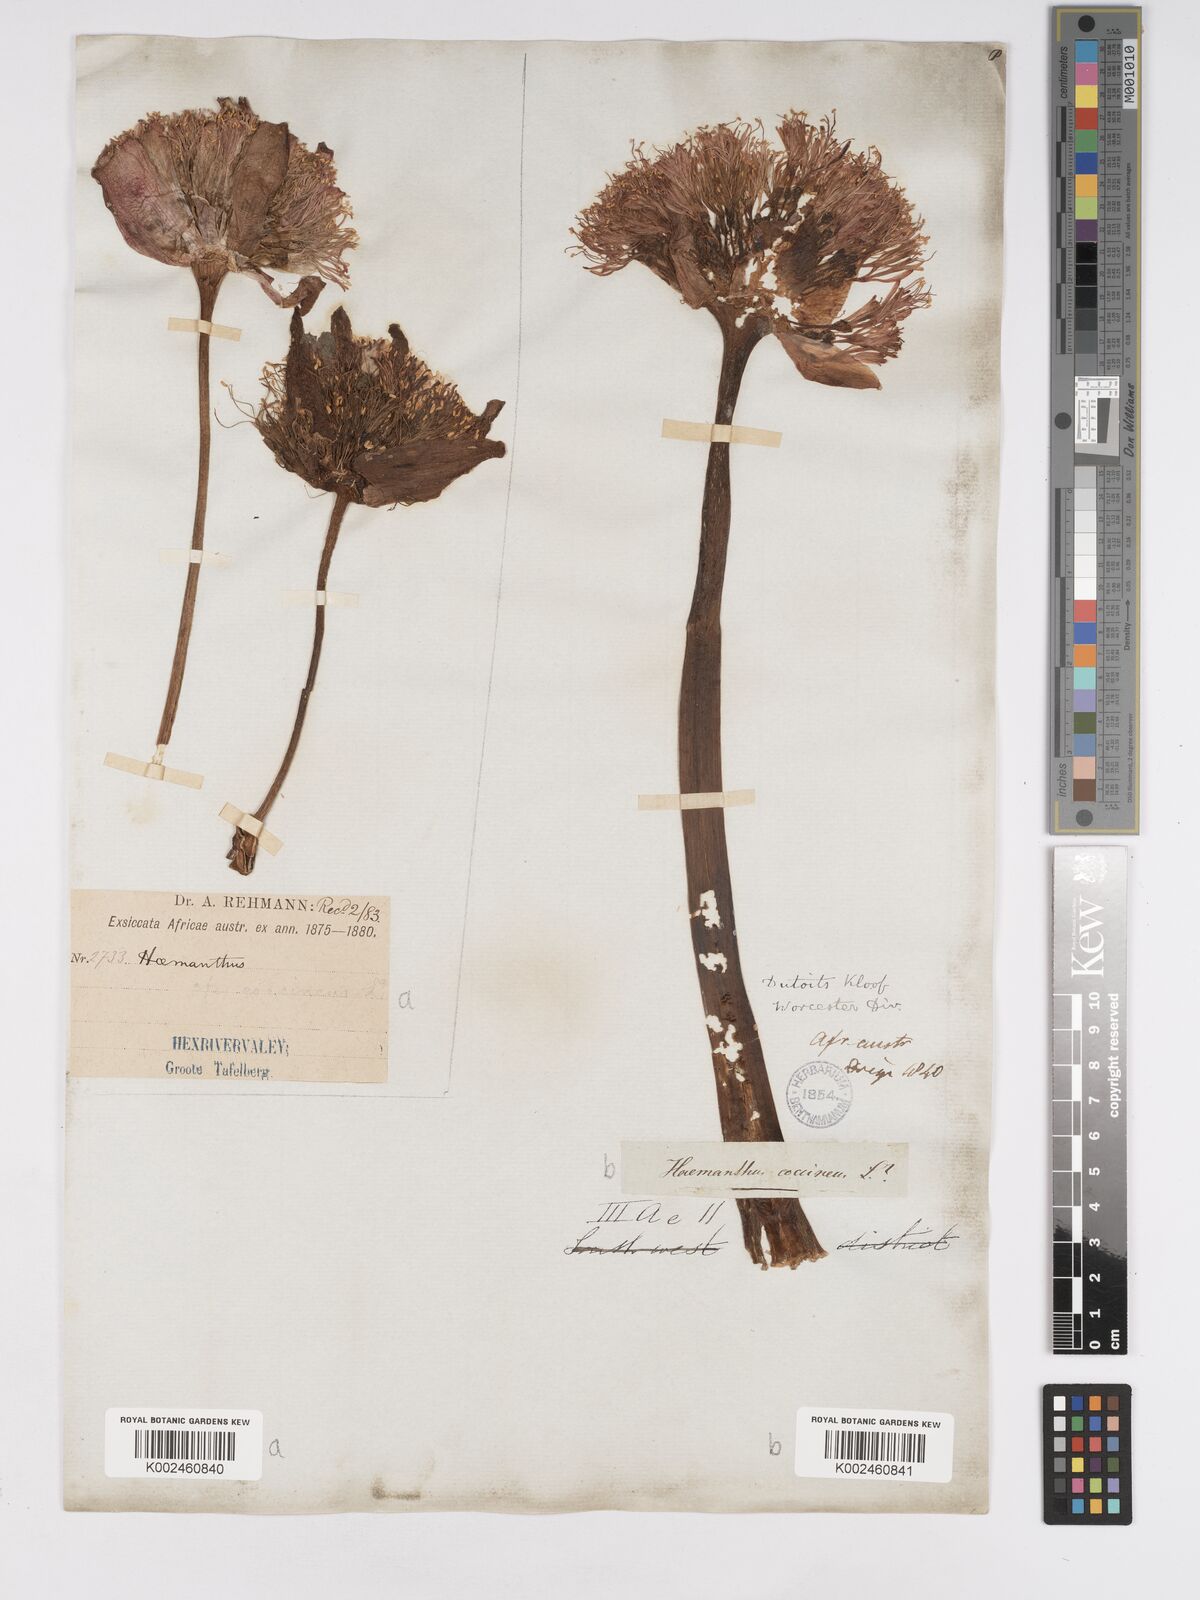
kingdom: Plantae
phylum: Tracheophyta
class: Liliopsida
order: Asparagales
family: Amaryllidaceae
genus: Haemanthus
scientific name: Haemanthus sanguineus
